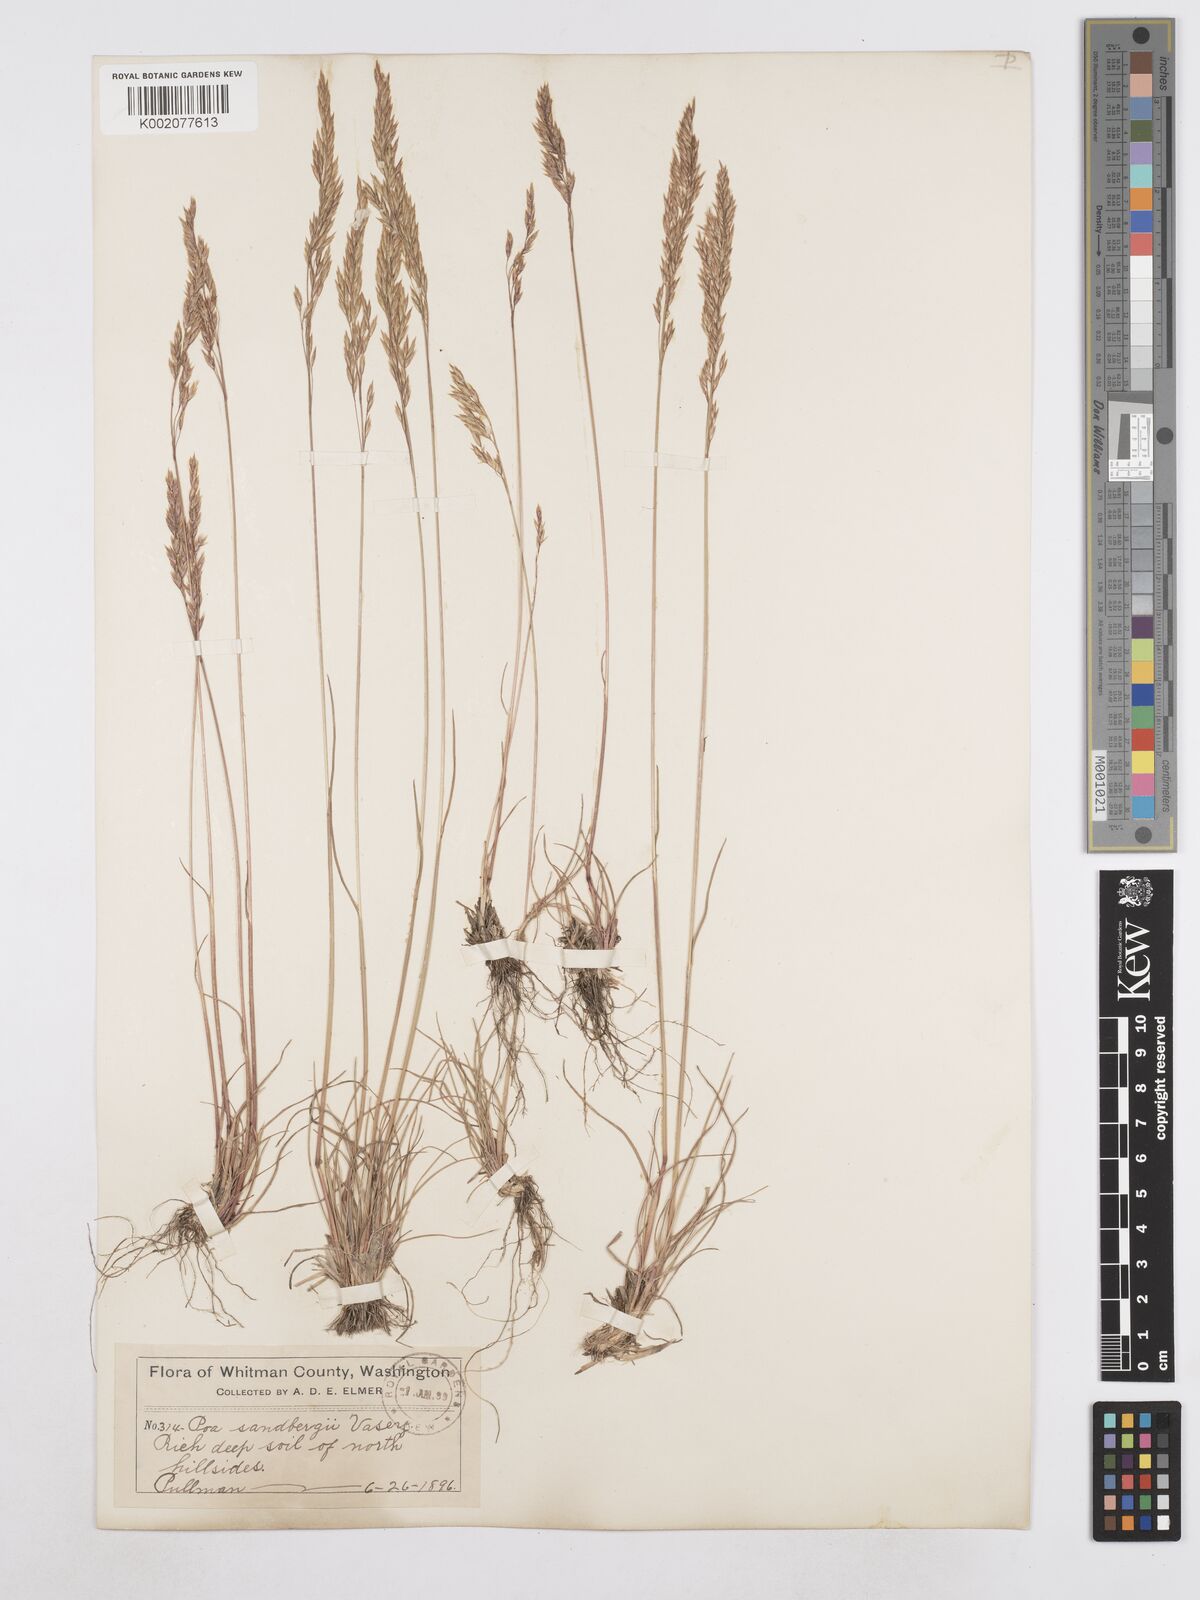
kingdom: Plantae
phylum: Tracheophyta
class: Liliopsida
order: Poales
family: Poaceae
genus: Poa
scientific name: Poa secunda
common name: Sandberg bluegrass
